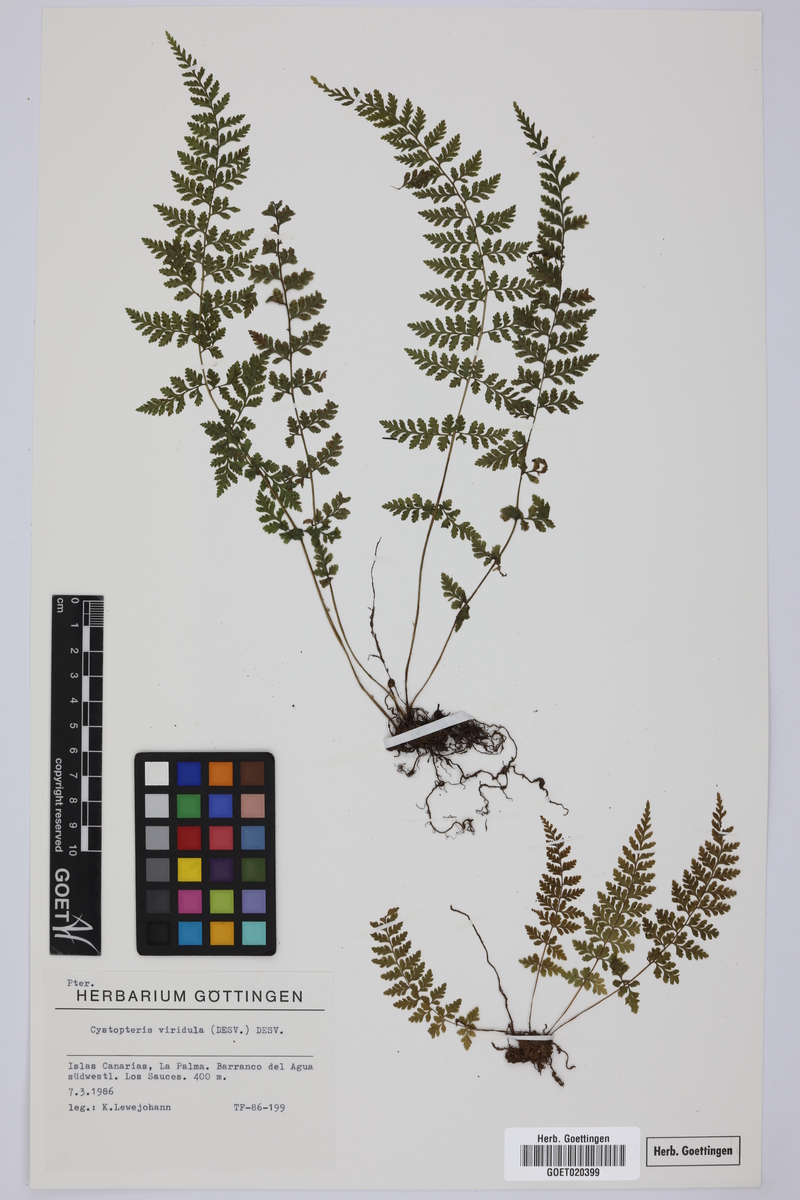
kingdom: Plantae
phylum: Tracheophyta
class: Polypodiopsida
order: Polypodiales
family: Cystopteridaceae
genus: Cystopteris
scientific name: Cystopteris diaphana
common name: Greenish bladder-fern
